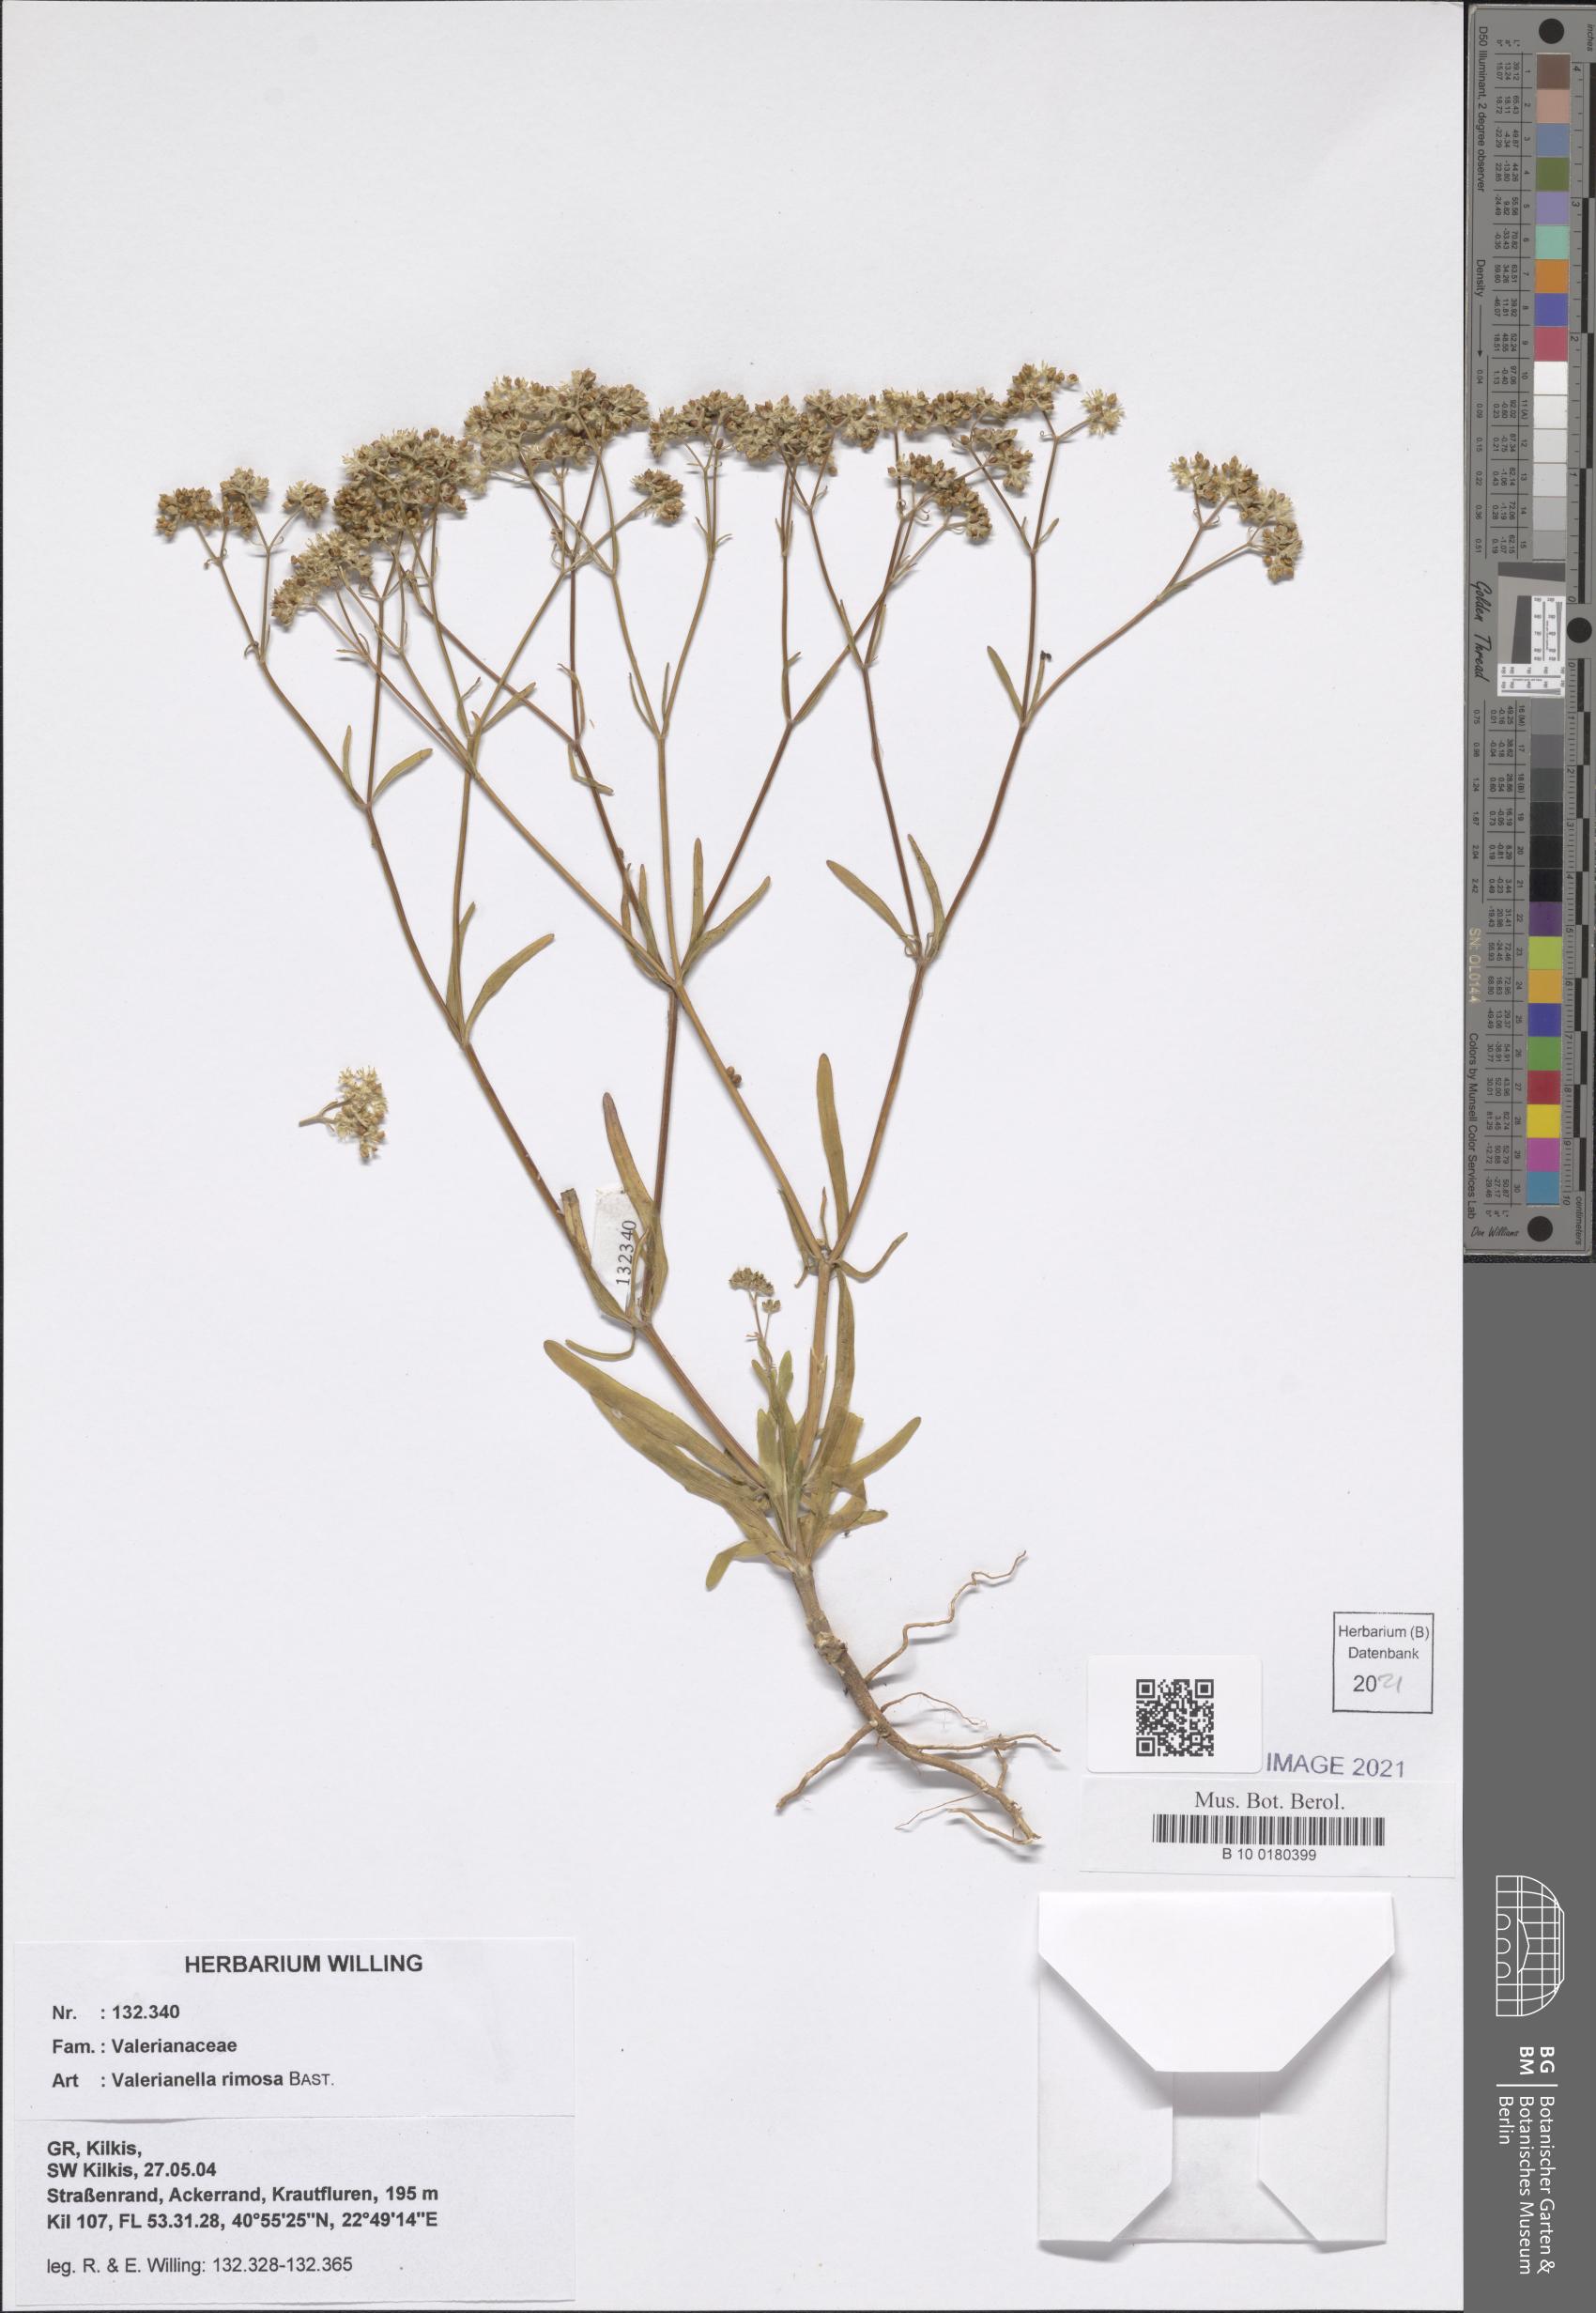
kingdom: Plantae
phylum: Tracheophyta
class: Magnoliopsida
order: Dipsacales
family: Caprifoliaceae
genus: Valerianella
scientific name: Valerianella rimosa
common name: Broad-fruited cornsalad
